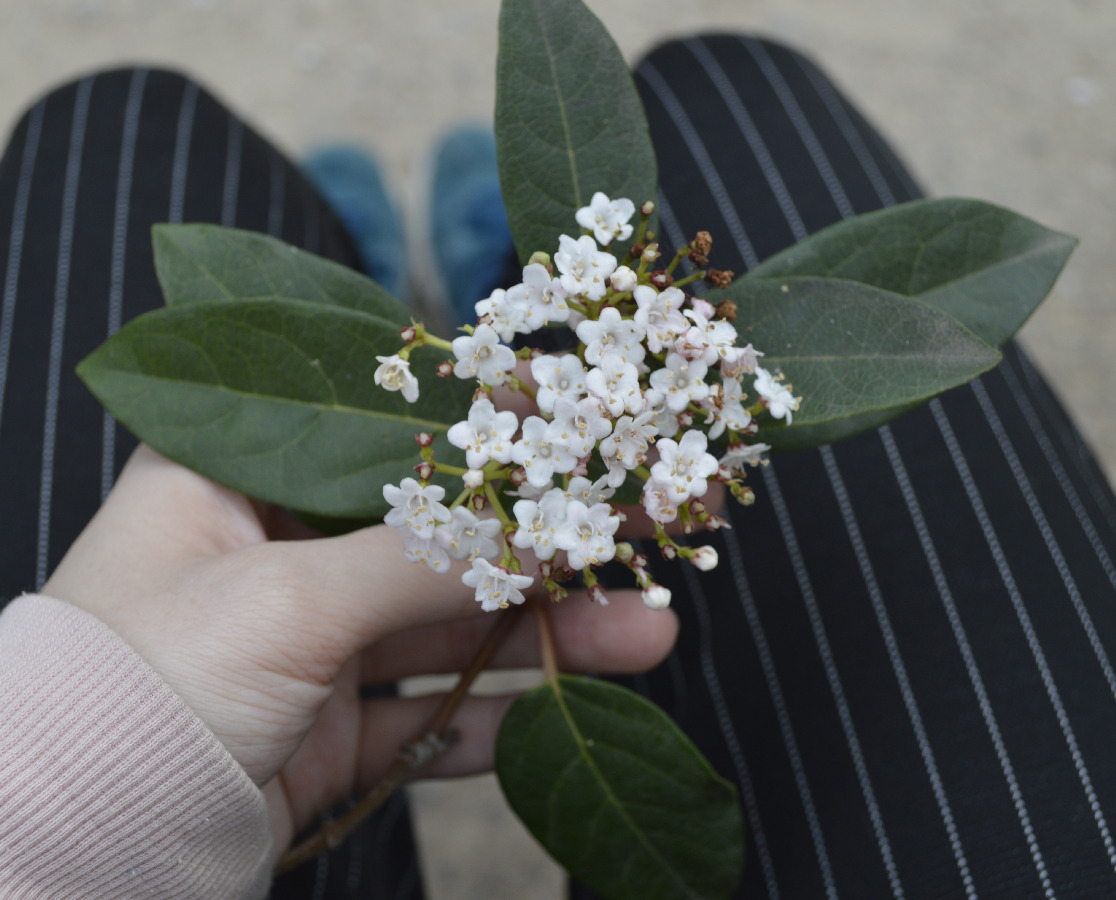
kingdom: Plantae
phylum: Tracheophyta
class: Magnoliopsida
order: Dipsacales
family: Viburnaceae
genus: Viburnum
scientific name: Viburnum tinus
